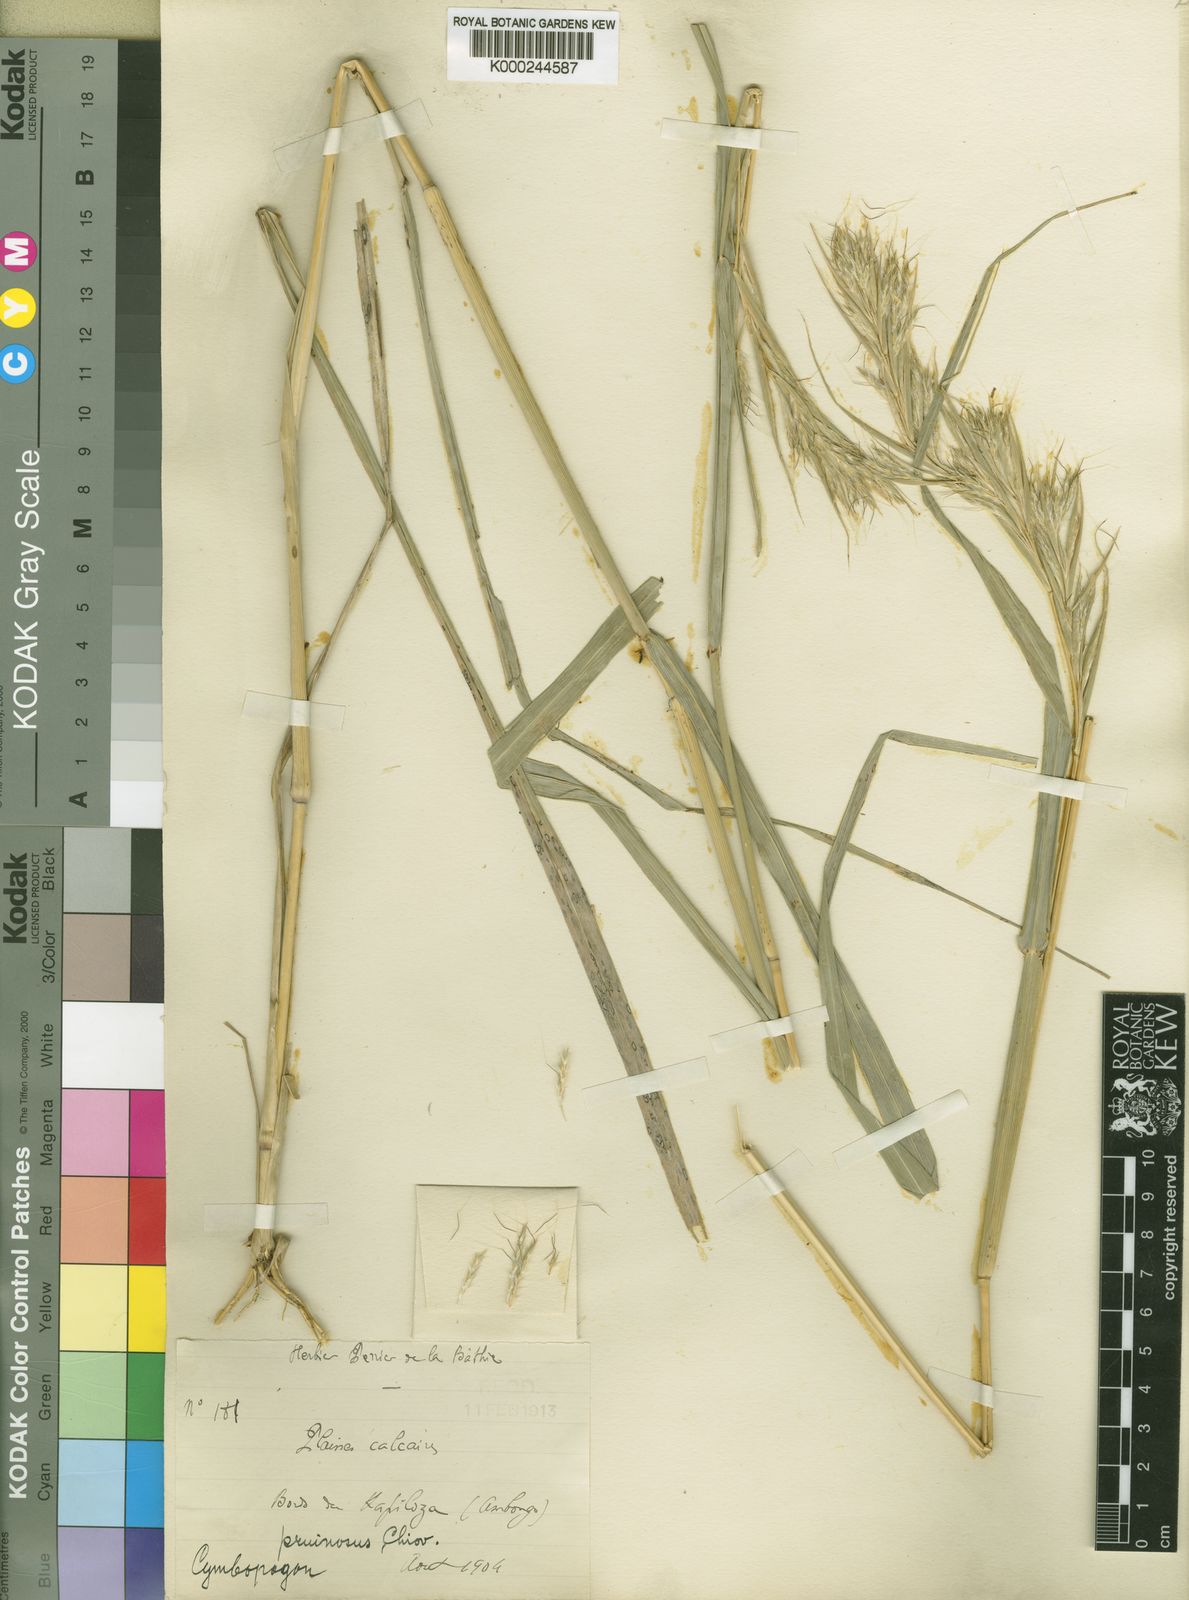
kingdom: Plantae
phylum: Tracheophyta
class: Liliopsida
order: Poales
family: Poaceae
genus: Cymbopogon
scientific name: Cymbopogon pruinosus
